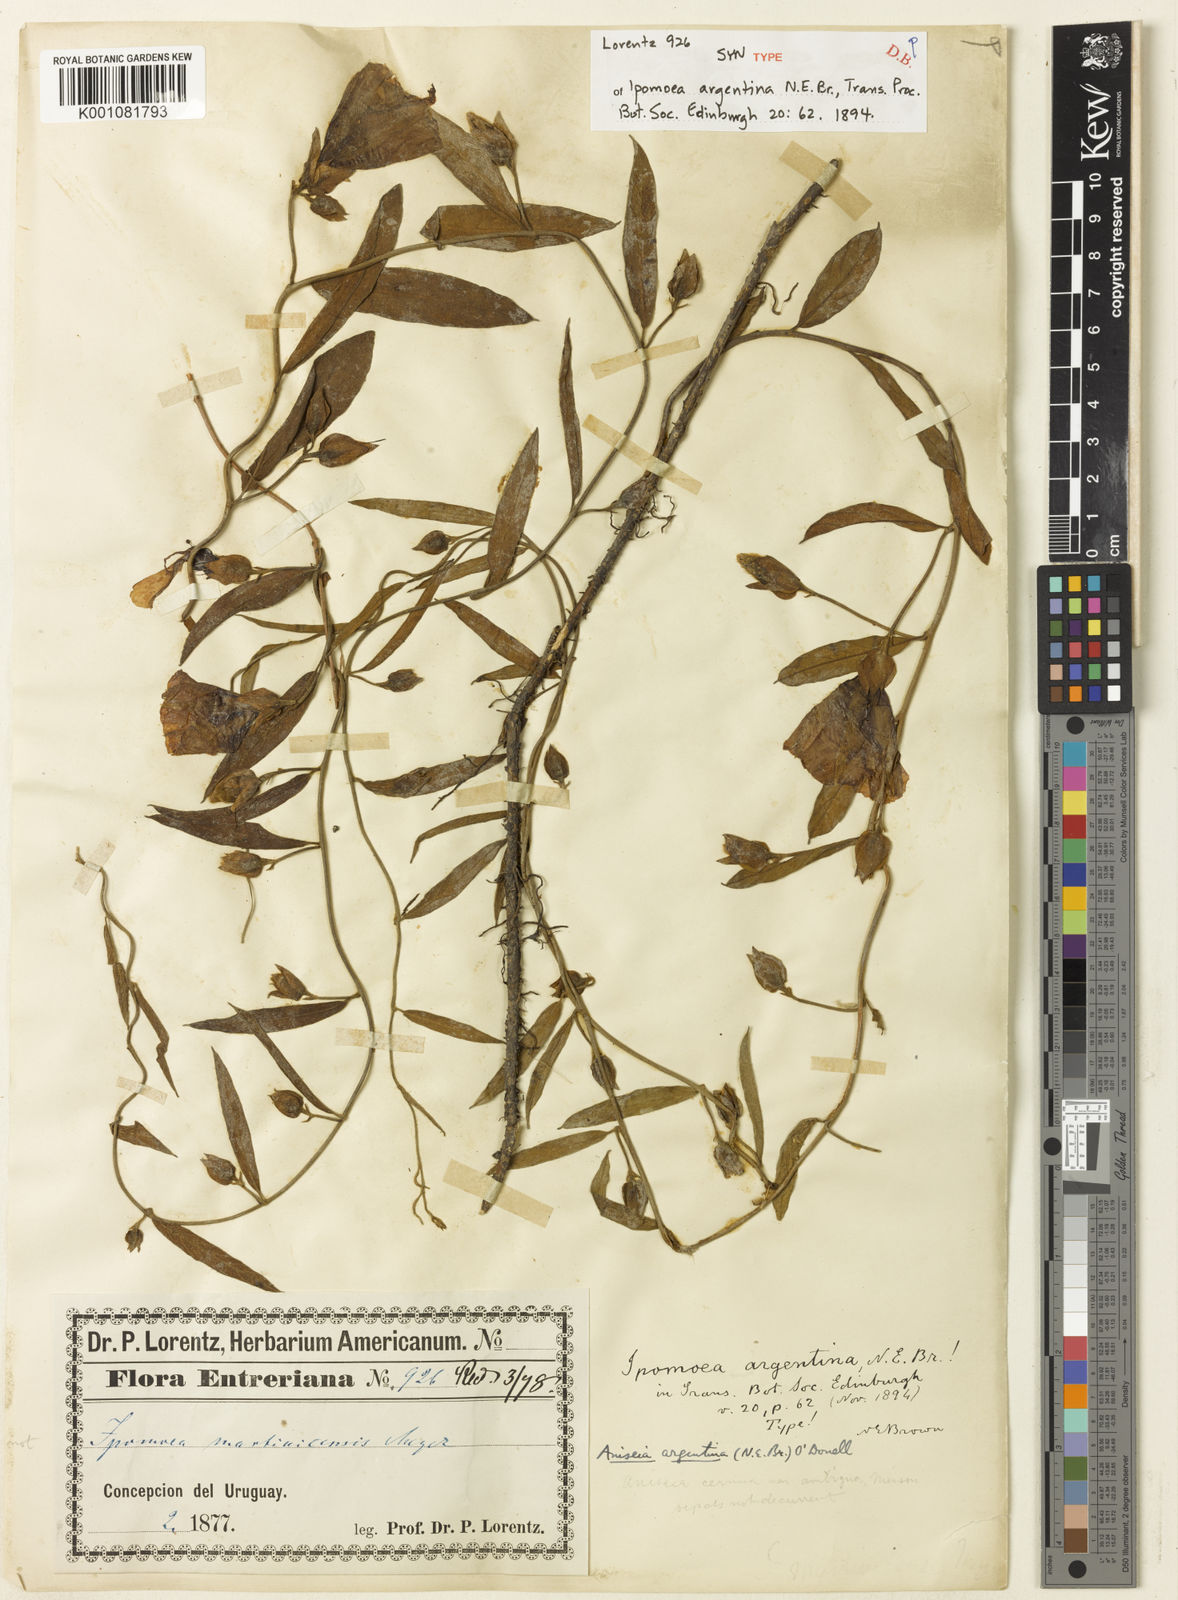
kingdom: Plantae
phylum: Tracheophyta
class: Magnoliopsida
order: Solanales
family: Convolvulaceae
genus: Aniseia
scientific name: Aniseia argentina
